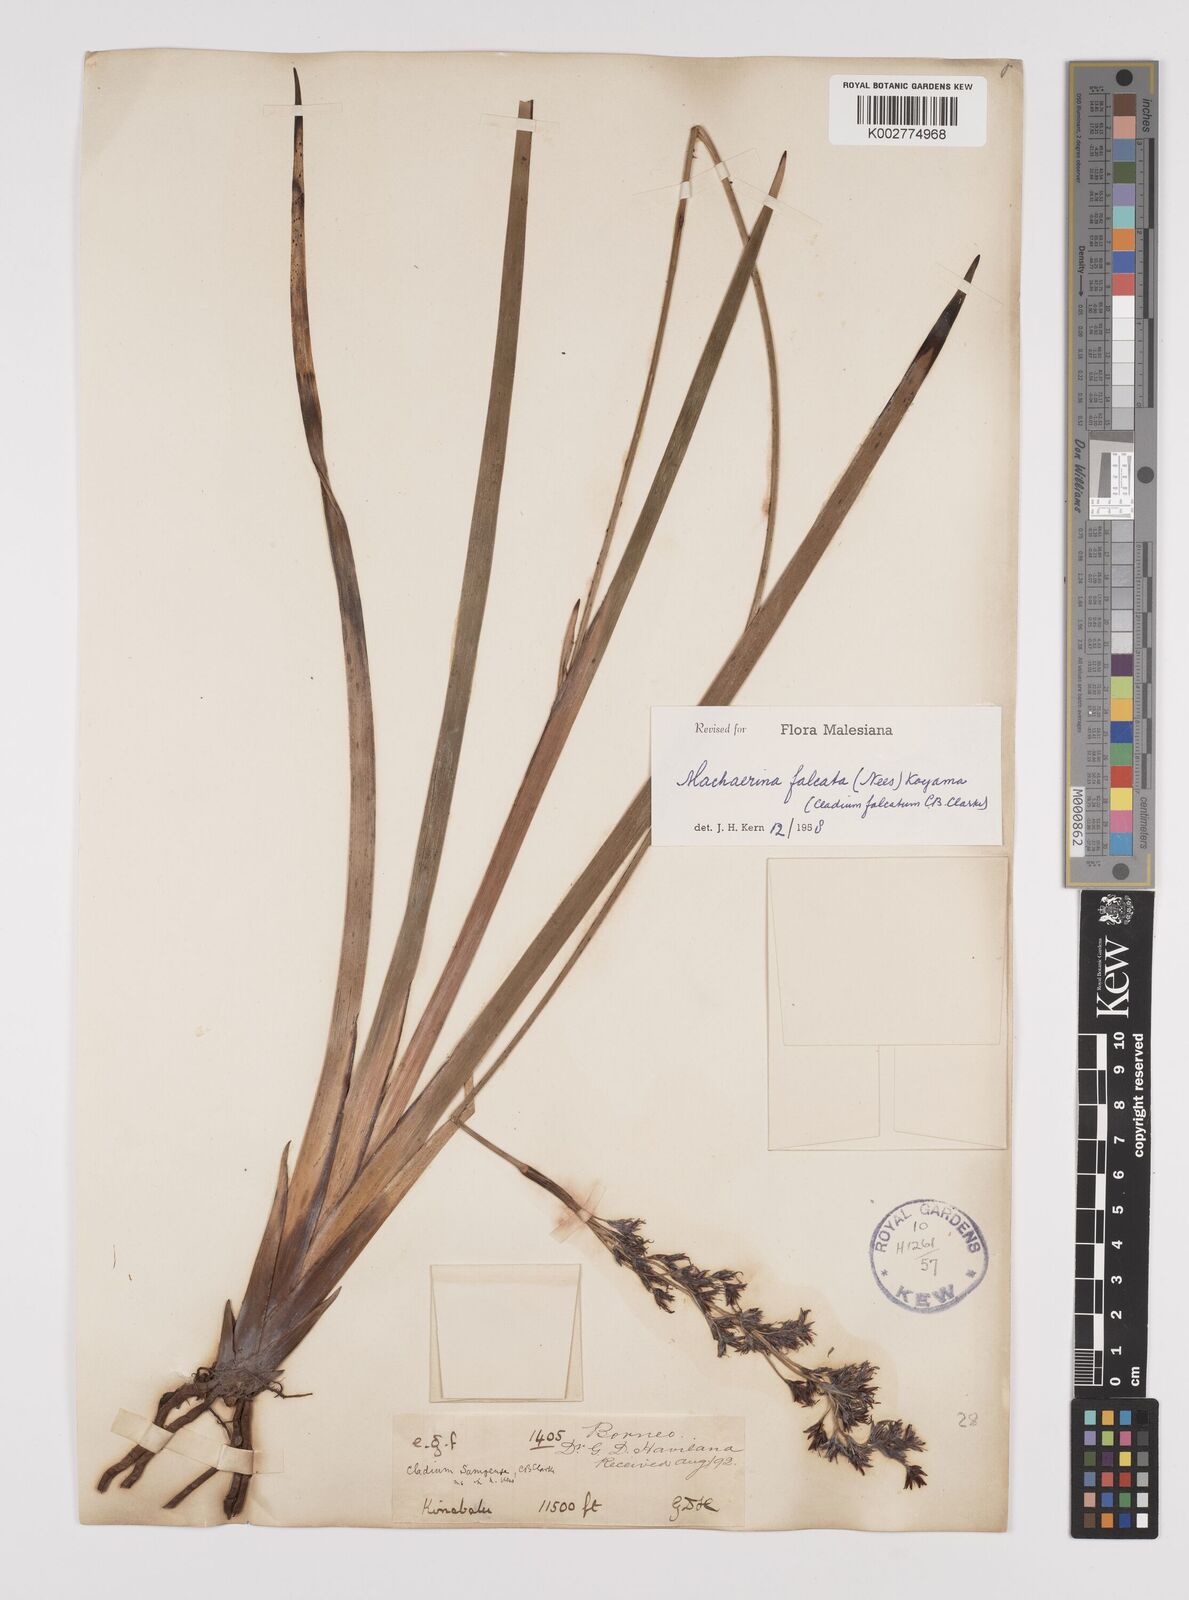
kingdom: Plantae
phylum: Tracheophyta
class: Liliopsida
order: Poales
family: Cyperaceae
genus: Machaerina
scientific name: Machaerina falcata
